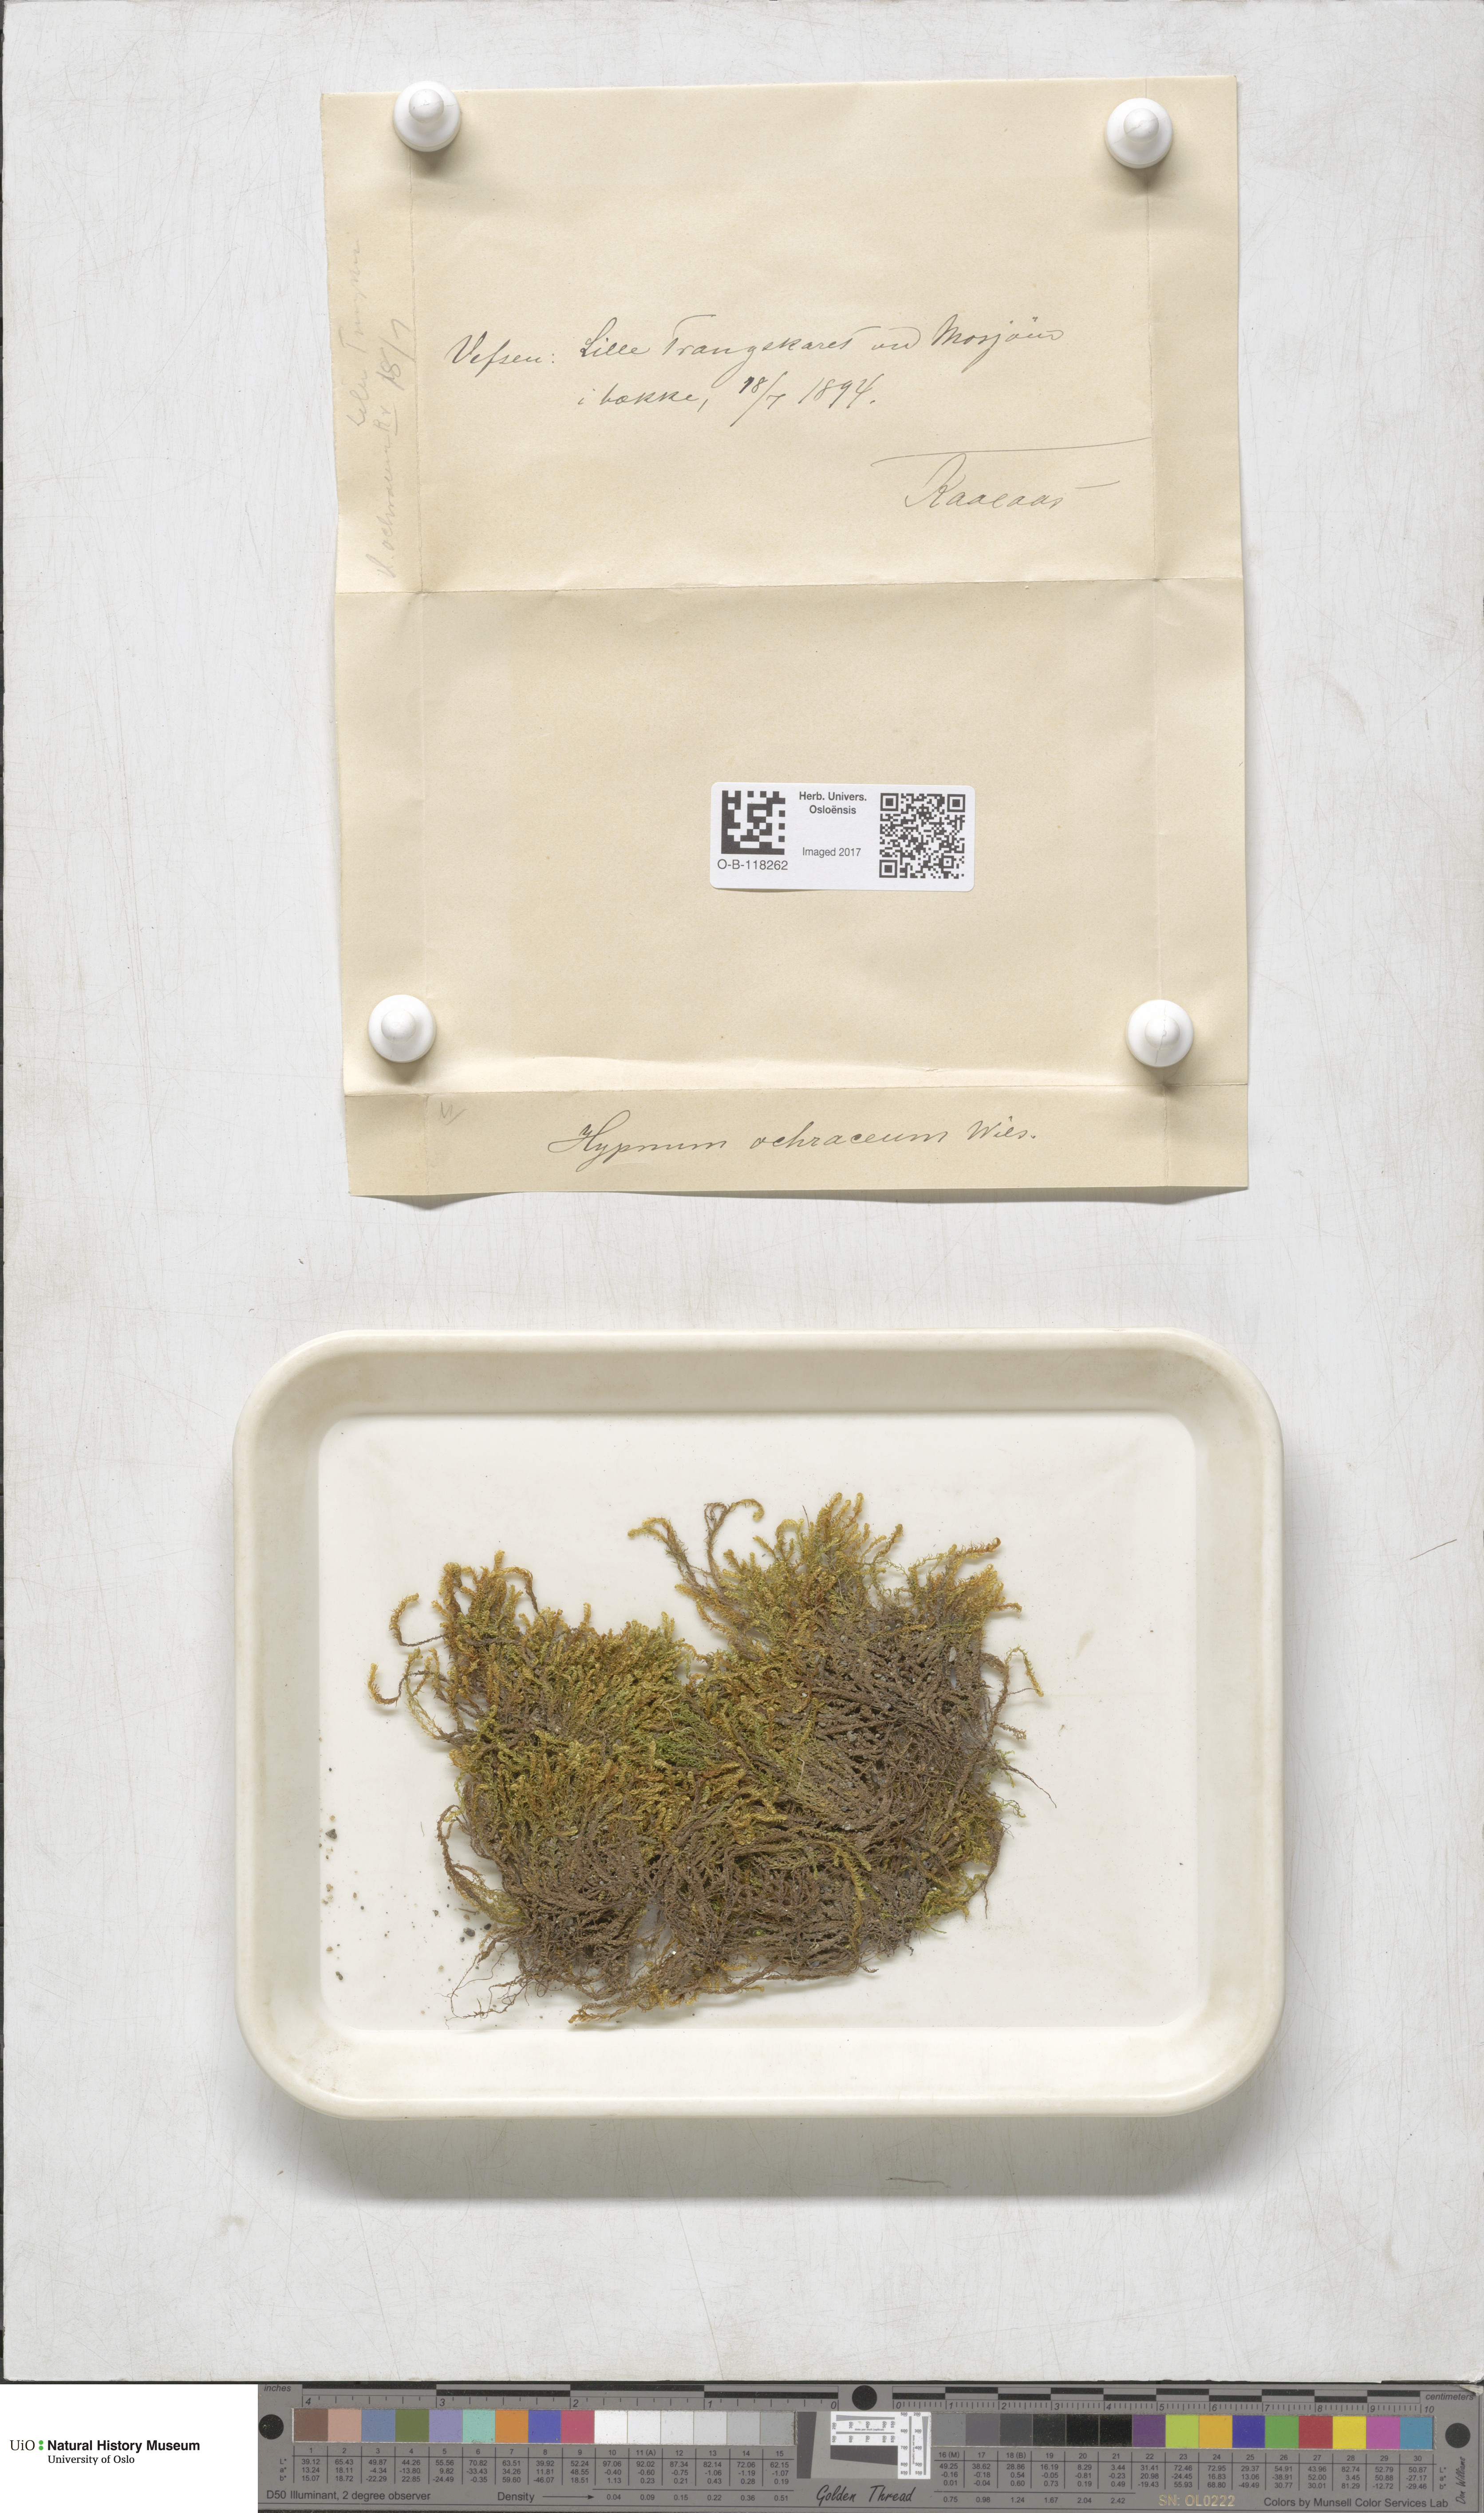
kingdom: Plantae
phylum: Bryophyta
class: Bryopsida
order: Hypnales
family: Scorpidiaceae
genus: Hygrohypnella
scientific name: Hygrohypnella ochracea
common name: Hygrohypnum moss
